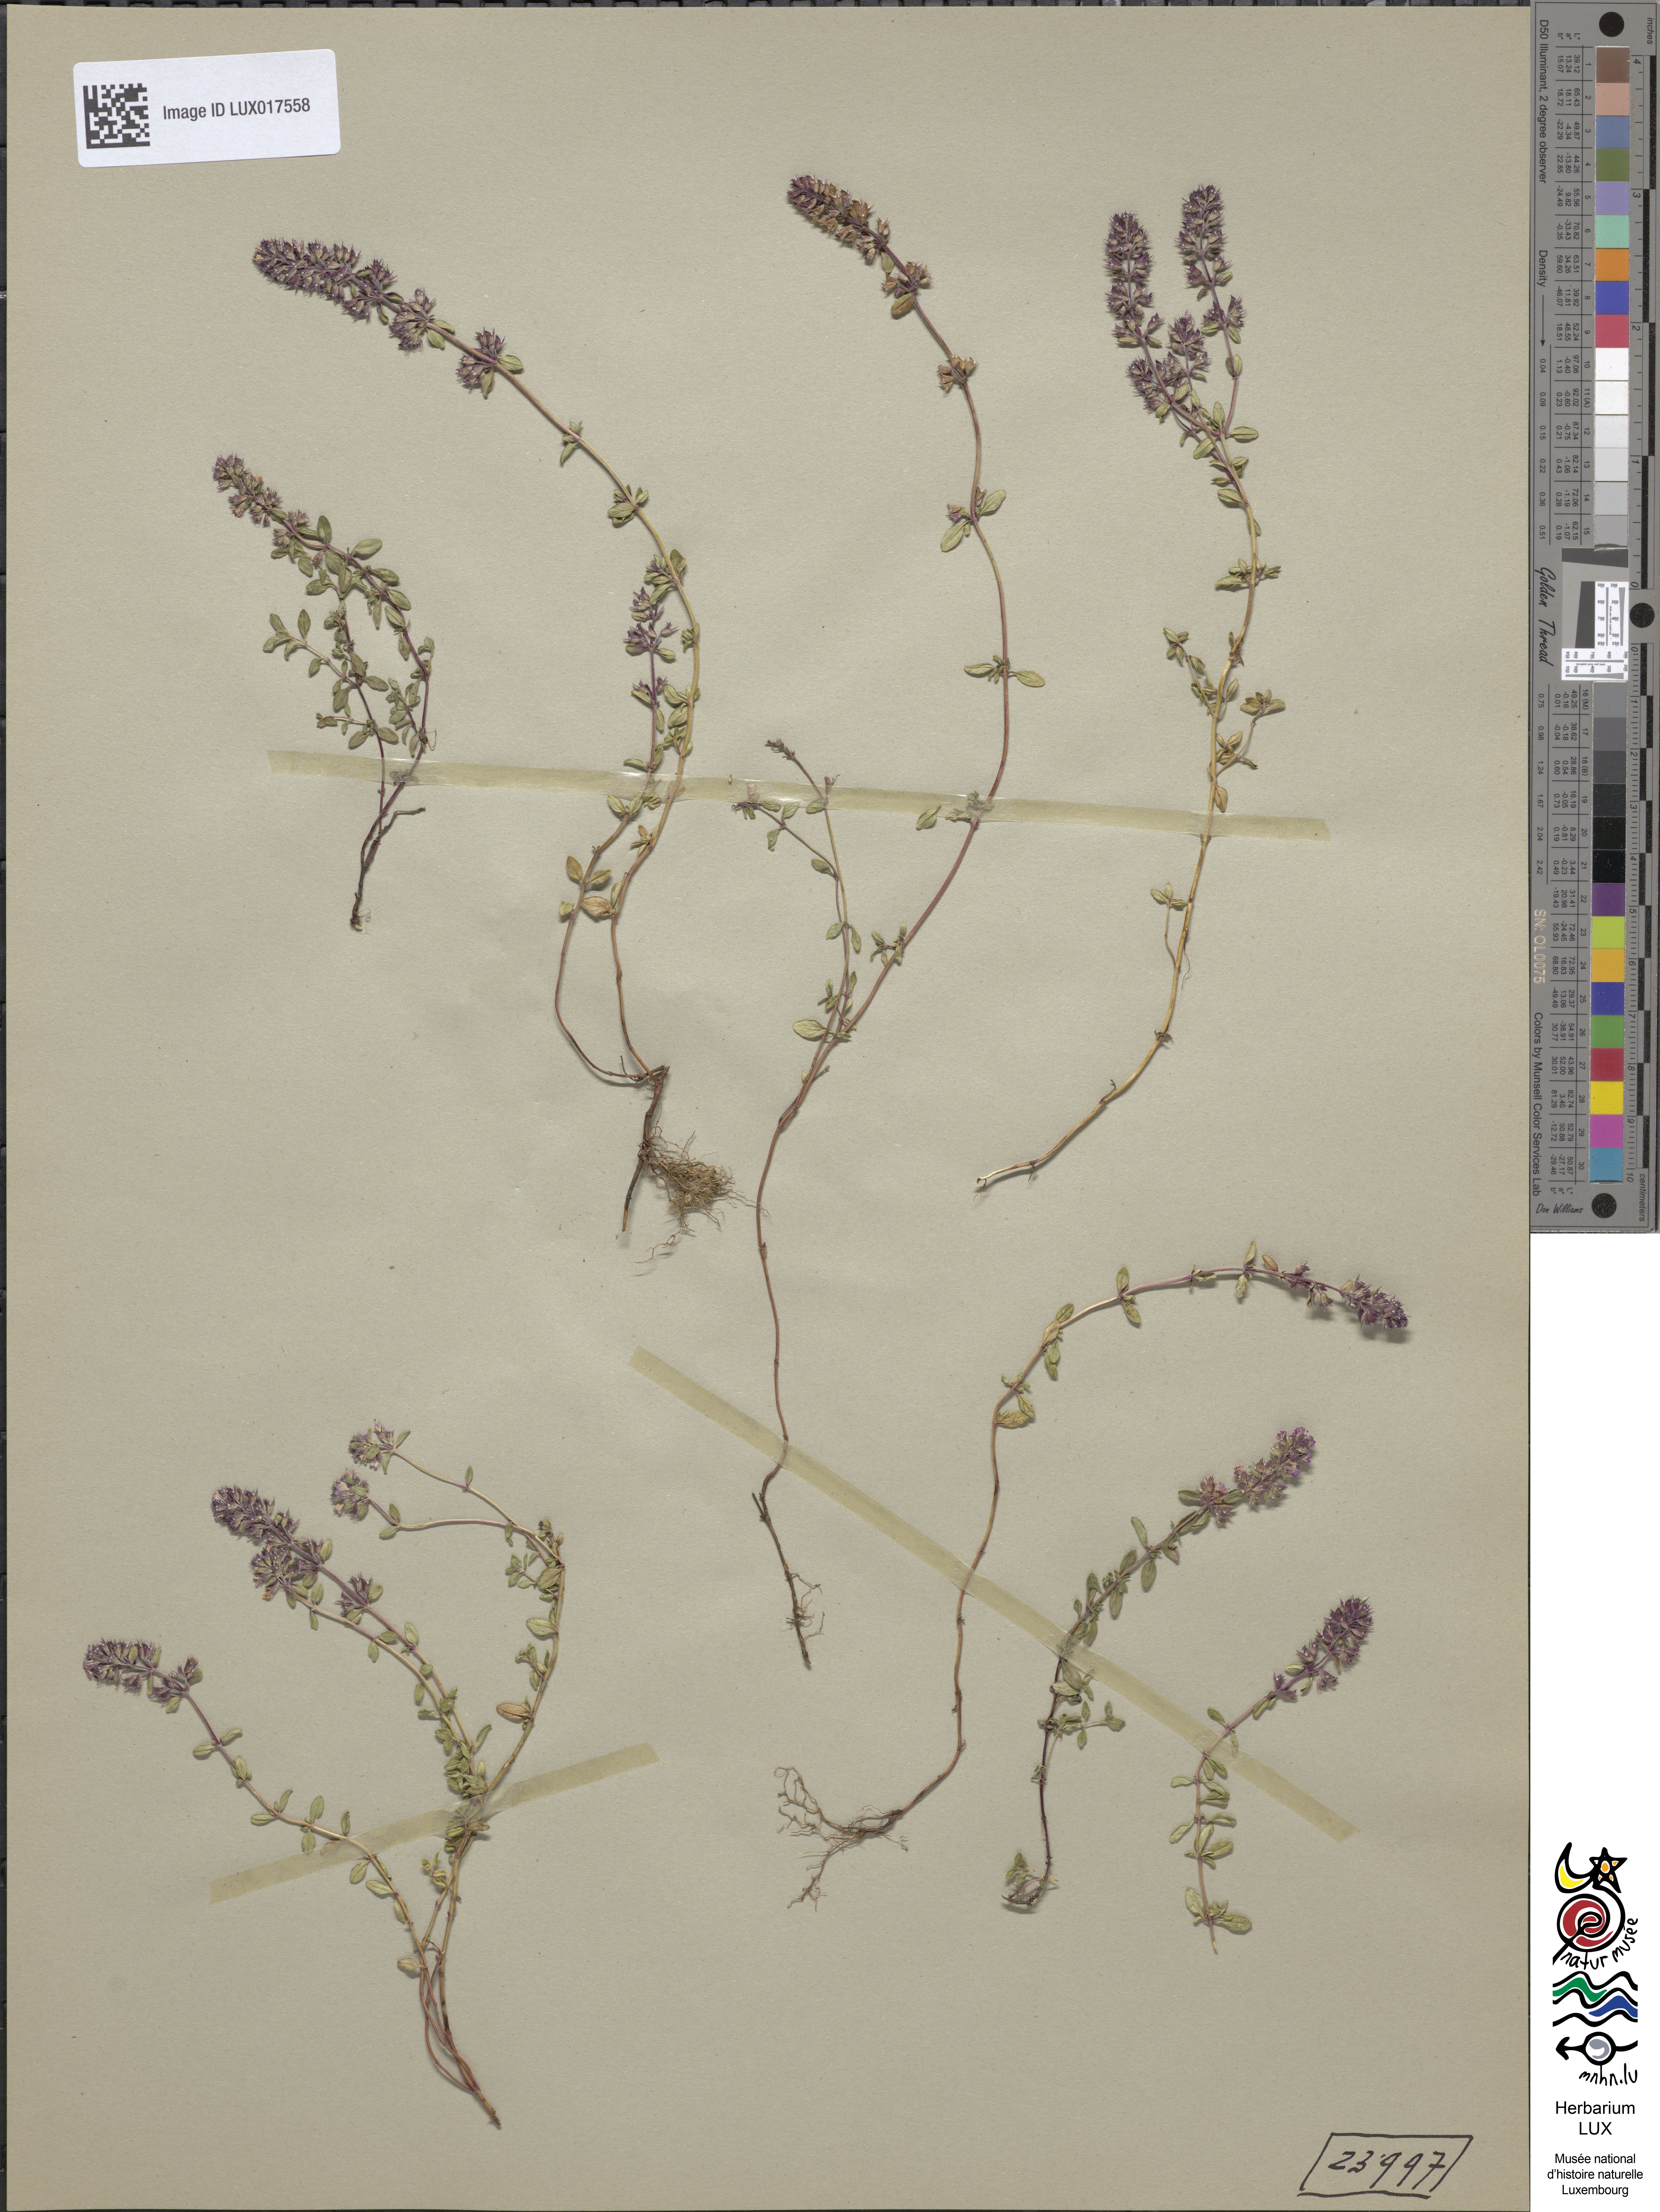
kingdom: Plantae
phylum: Tracheophyta
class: Magnoliopsida
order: Lamiales
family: Lamiaceae
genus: Thymus
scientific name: Thymus pulegioides
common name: Large thyme
